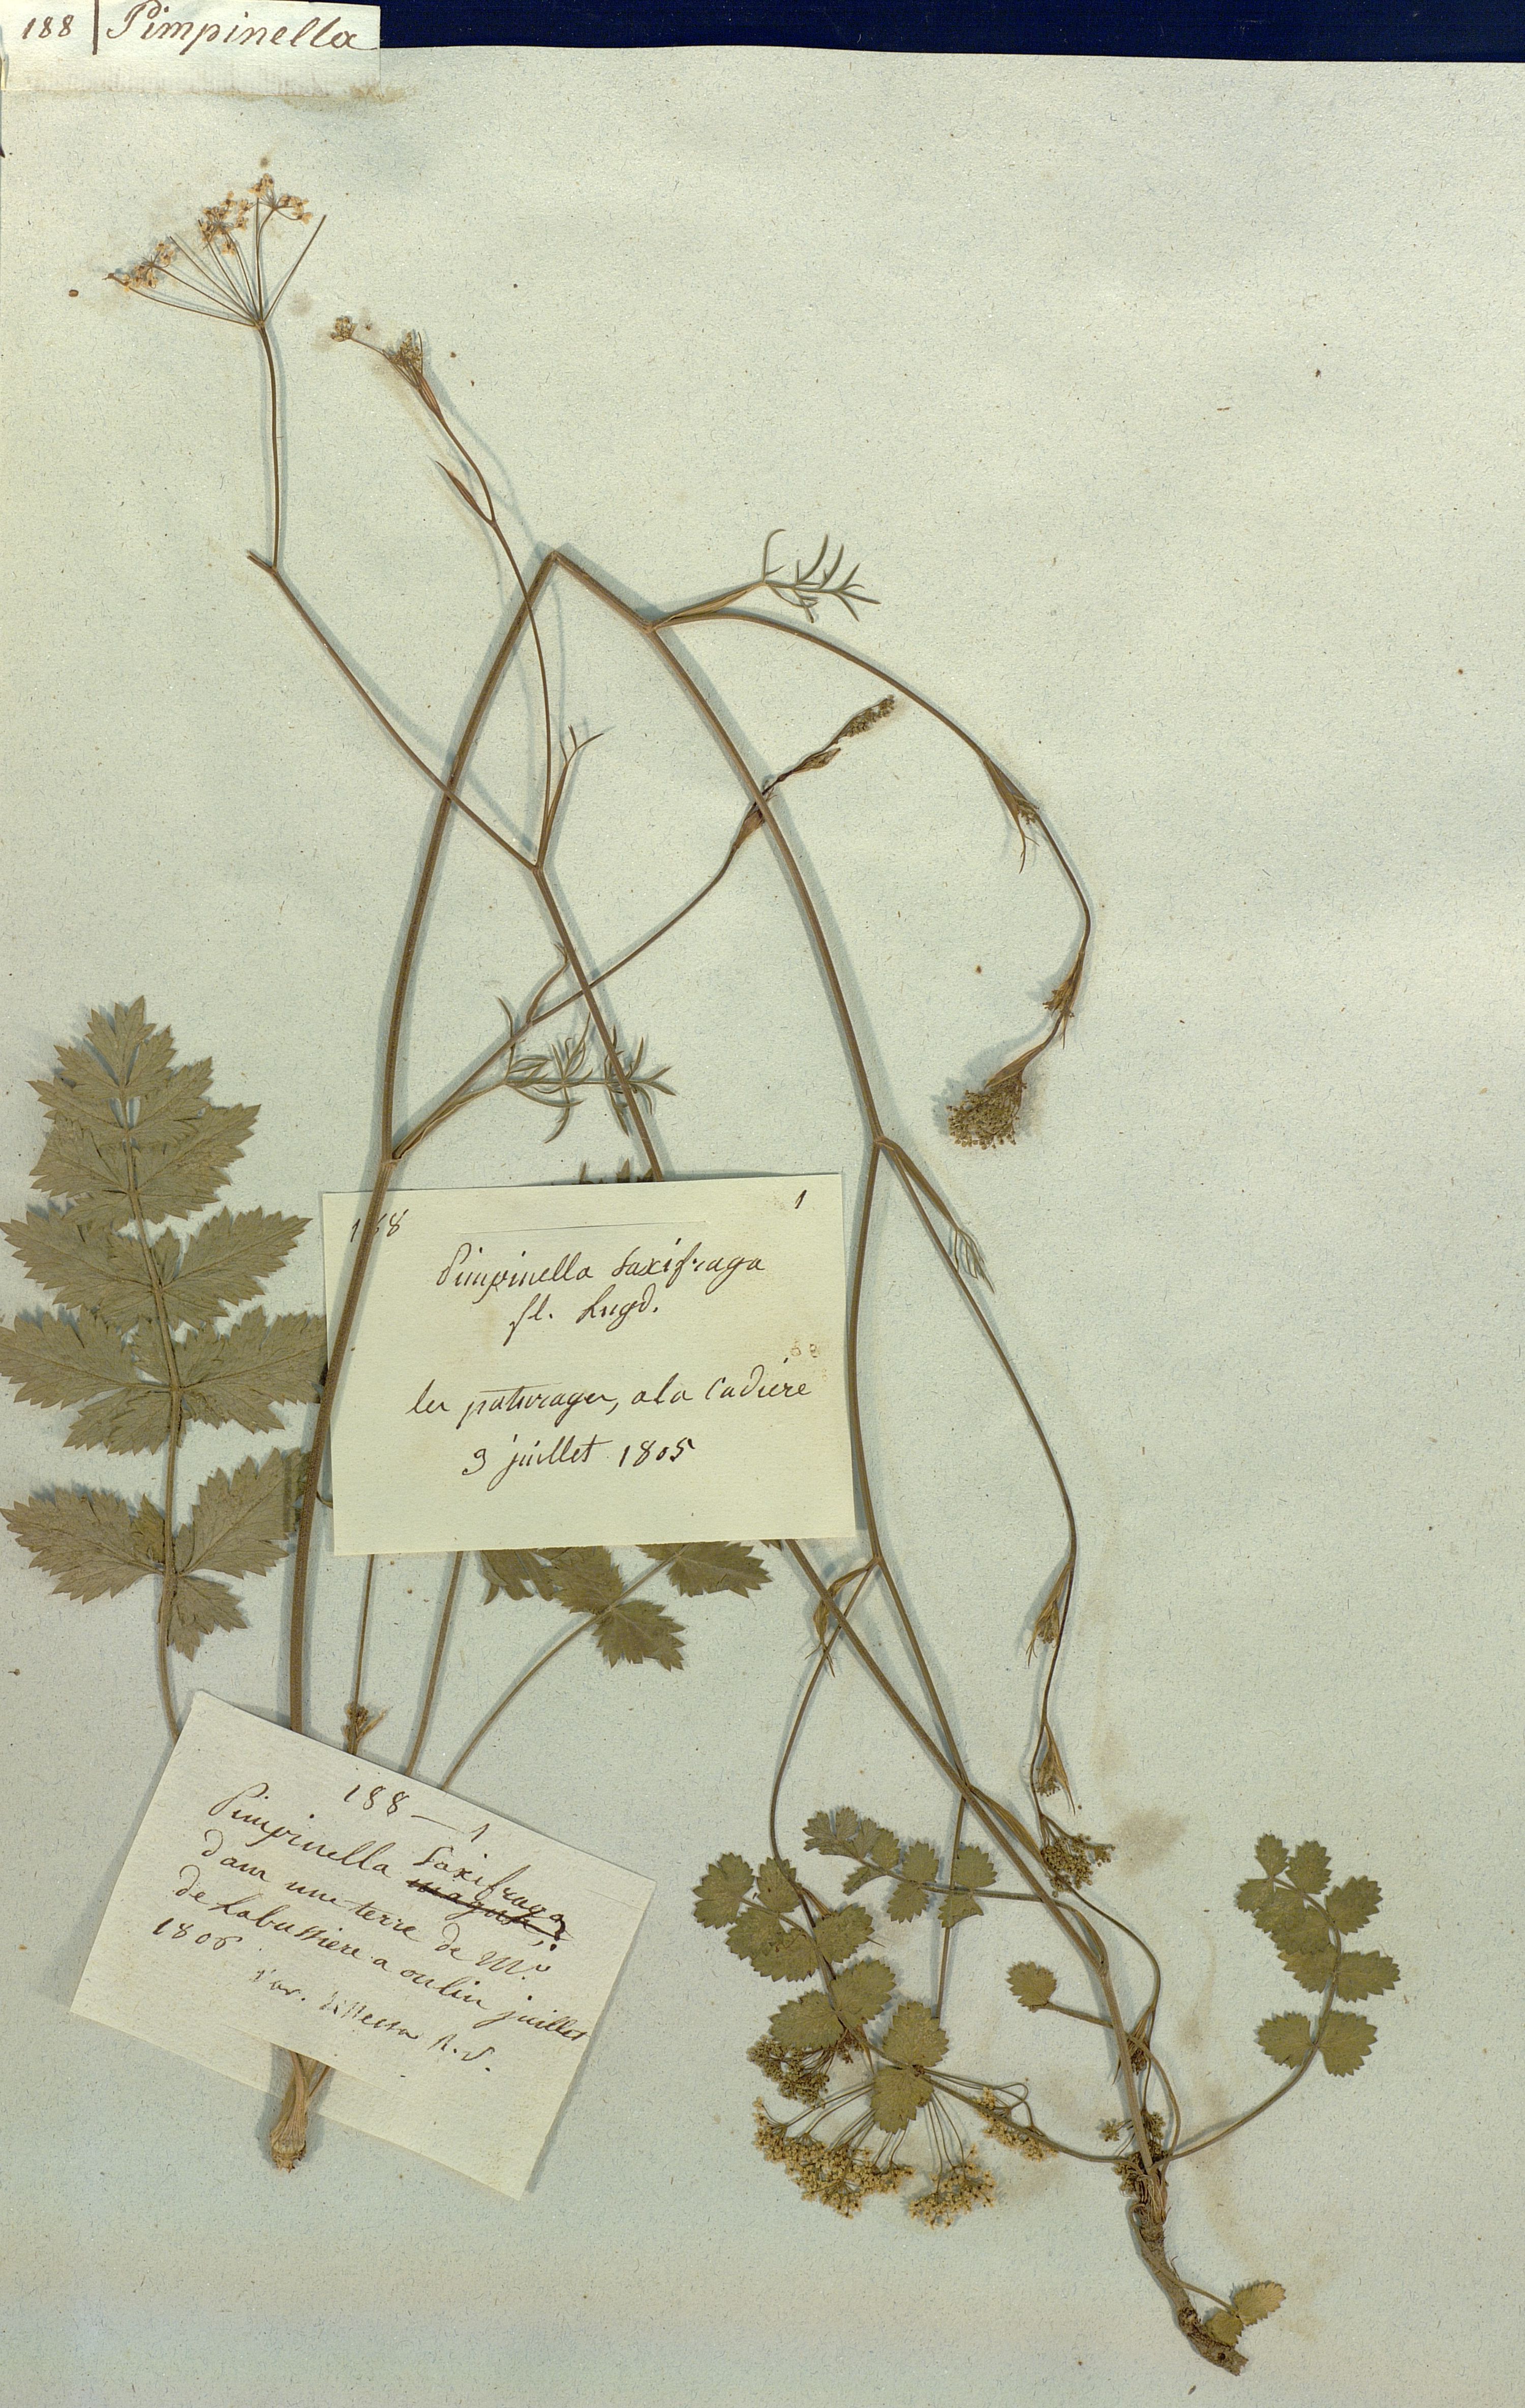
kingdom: Plantae
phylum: Tracheophyta
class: Magnoliopsida
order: Apiales
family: Apiaceae
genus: Pimpinella
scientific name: Pimpinella saxifraga
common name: Burnet-saxifrage
